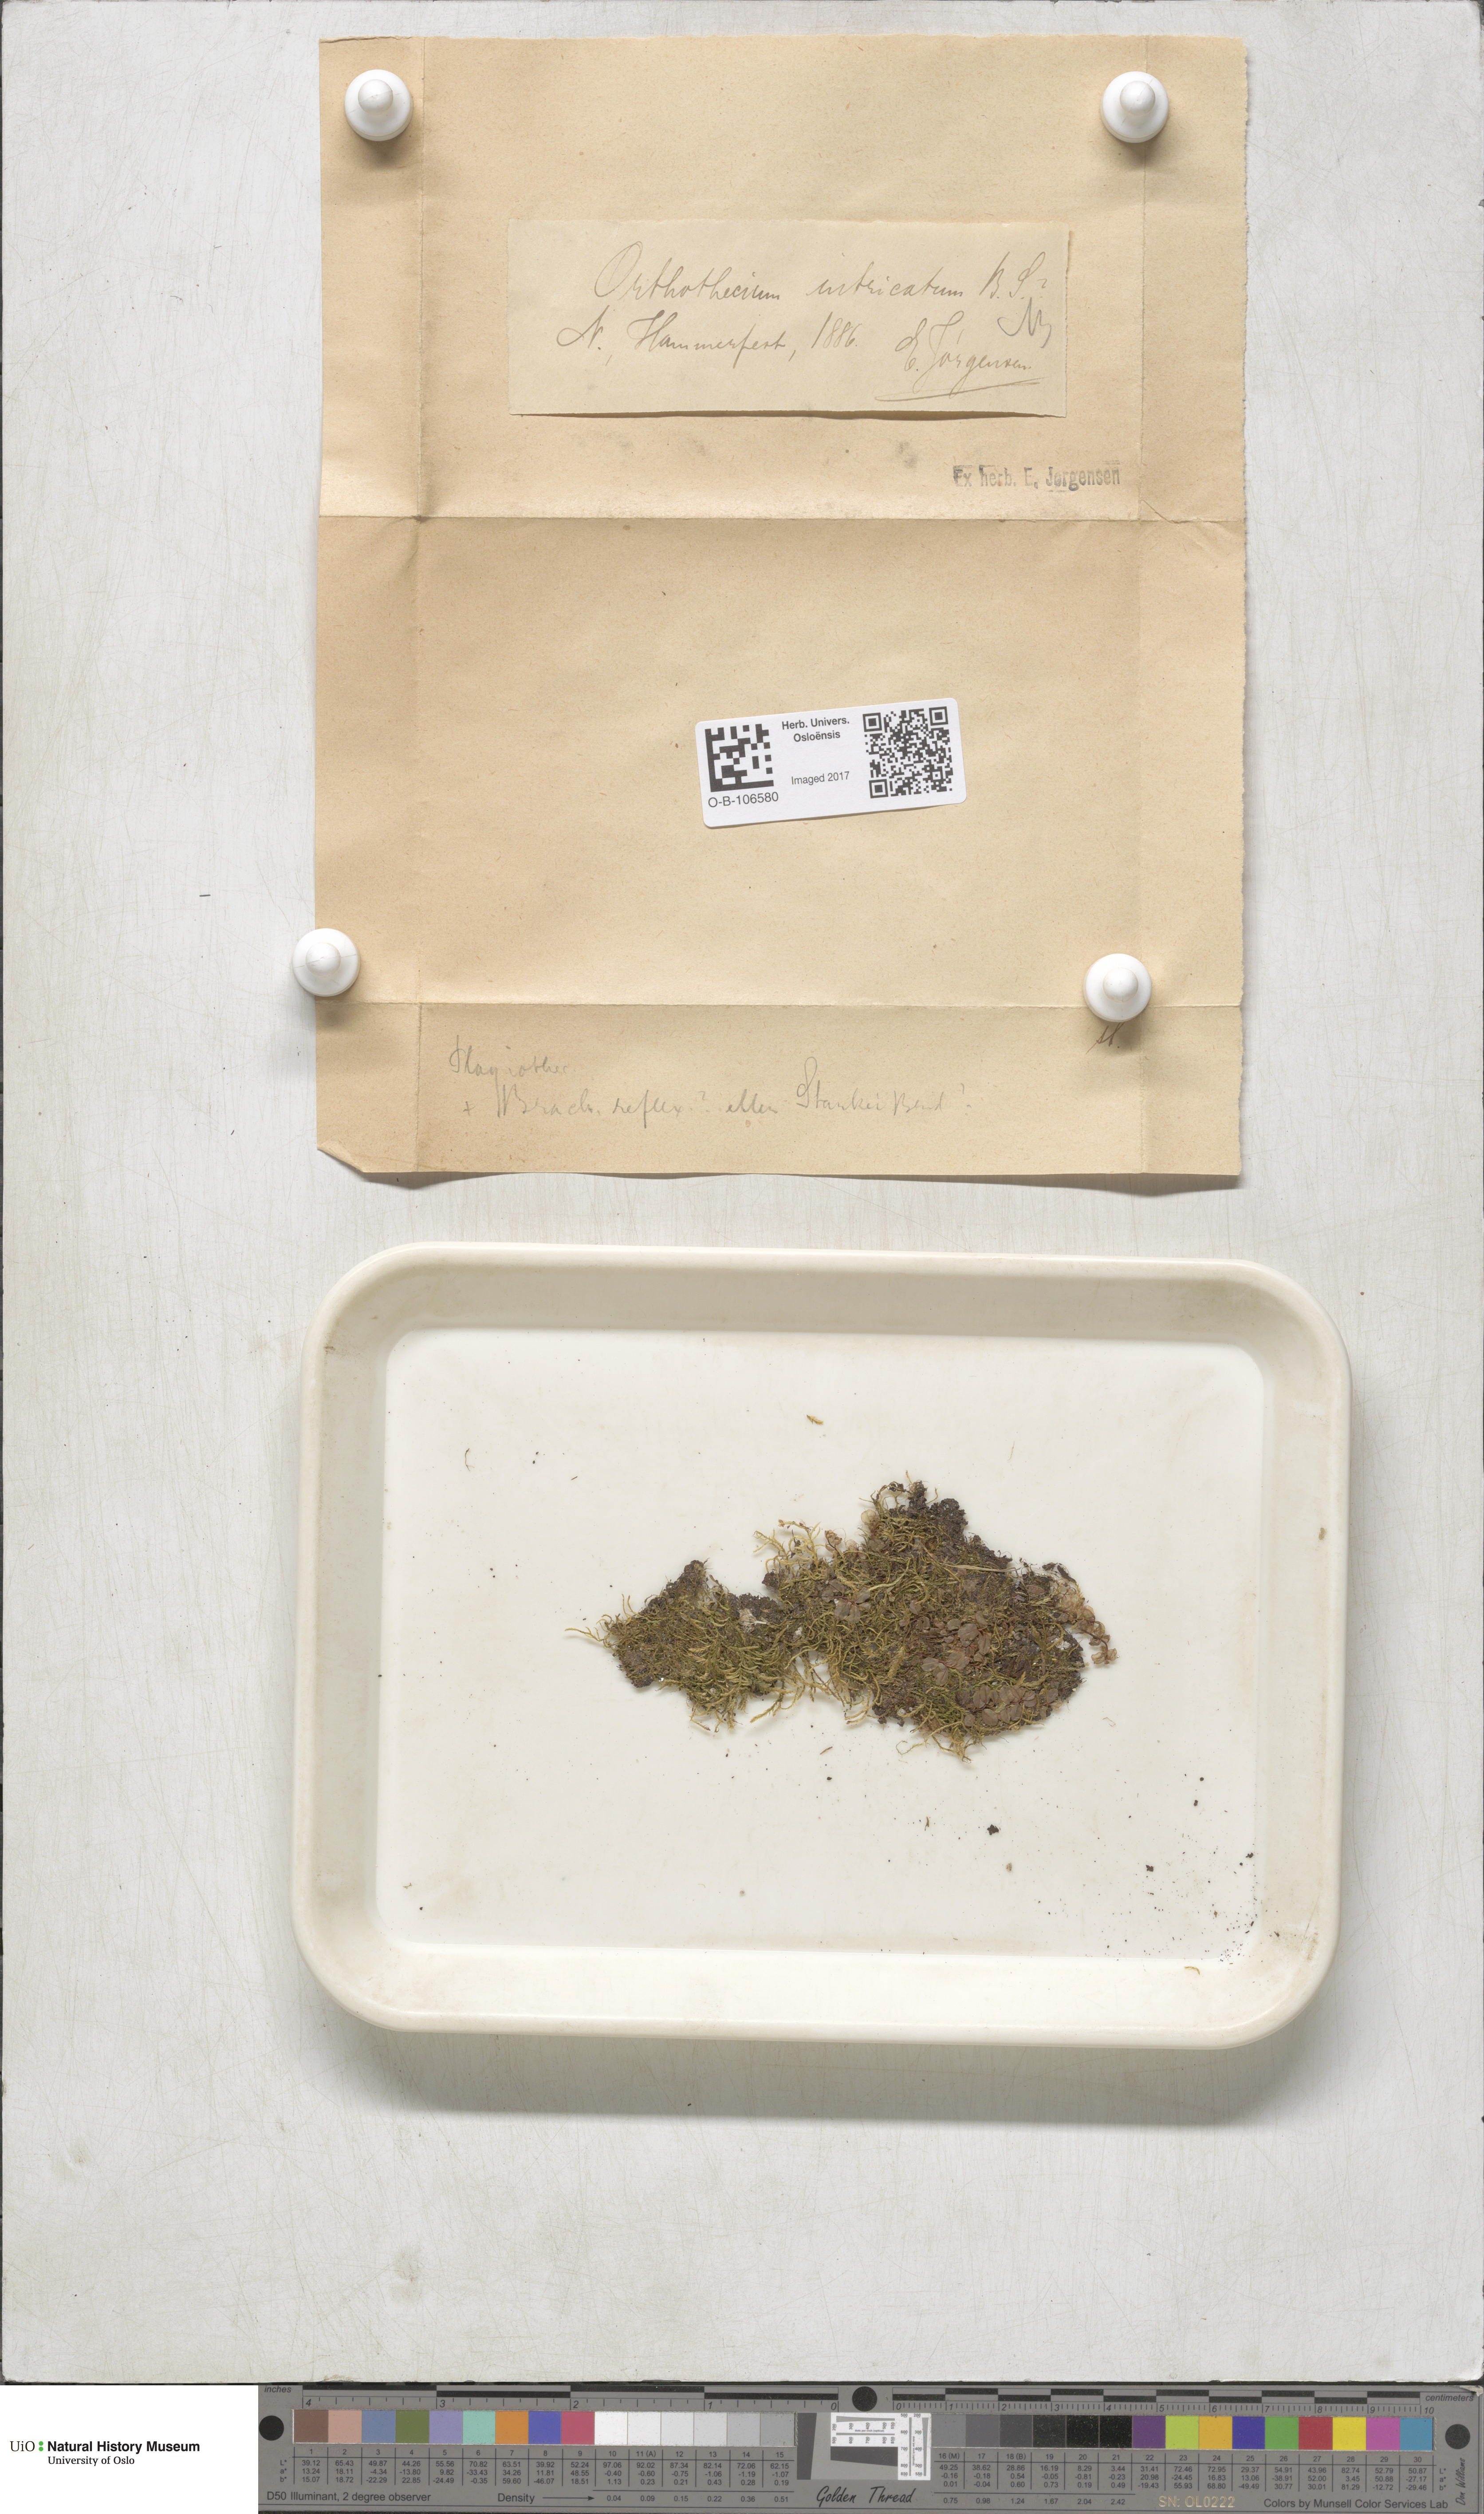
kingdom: Plantae
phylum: Bryophyta
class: Bryopsida
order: Hypnales
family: Plagiotheciaceae
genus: Orthothecium
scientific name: Orthothecium intricatum
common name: Fine-leaved erect-capsule moss
